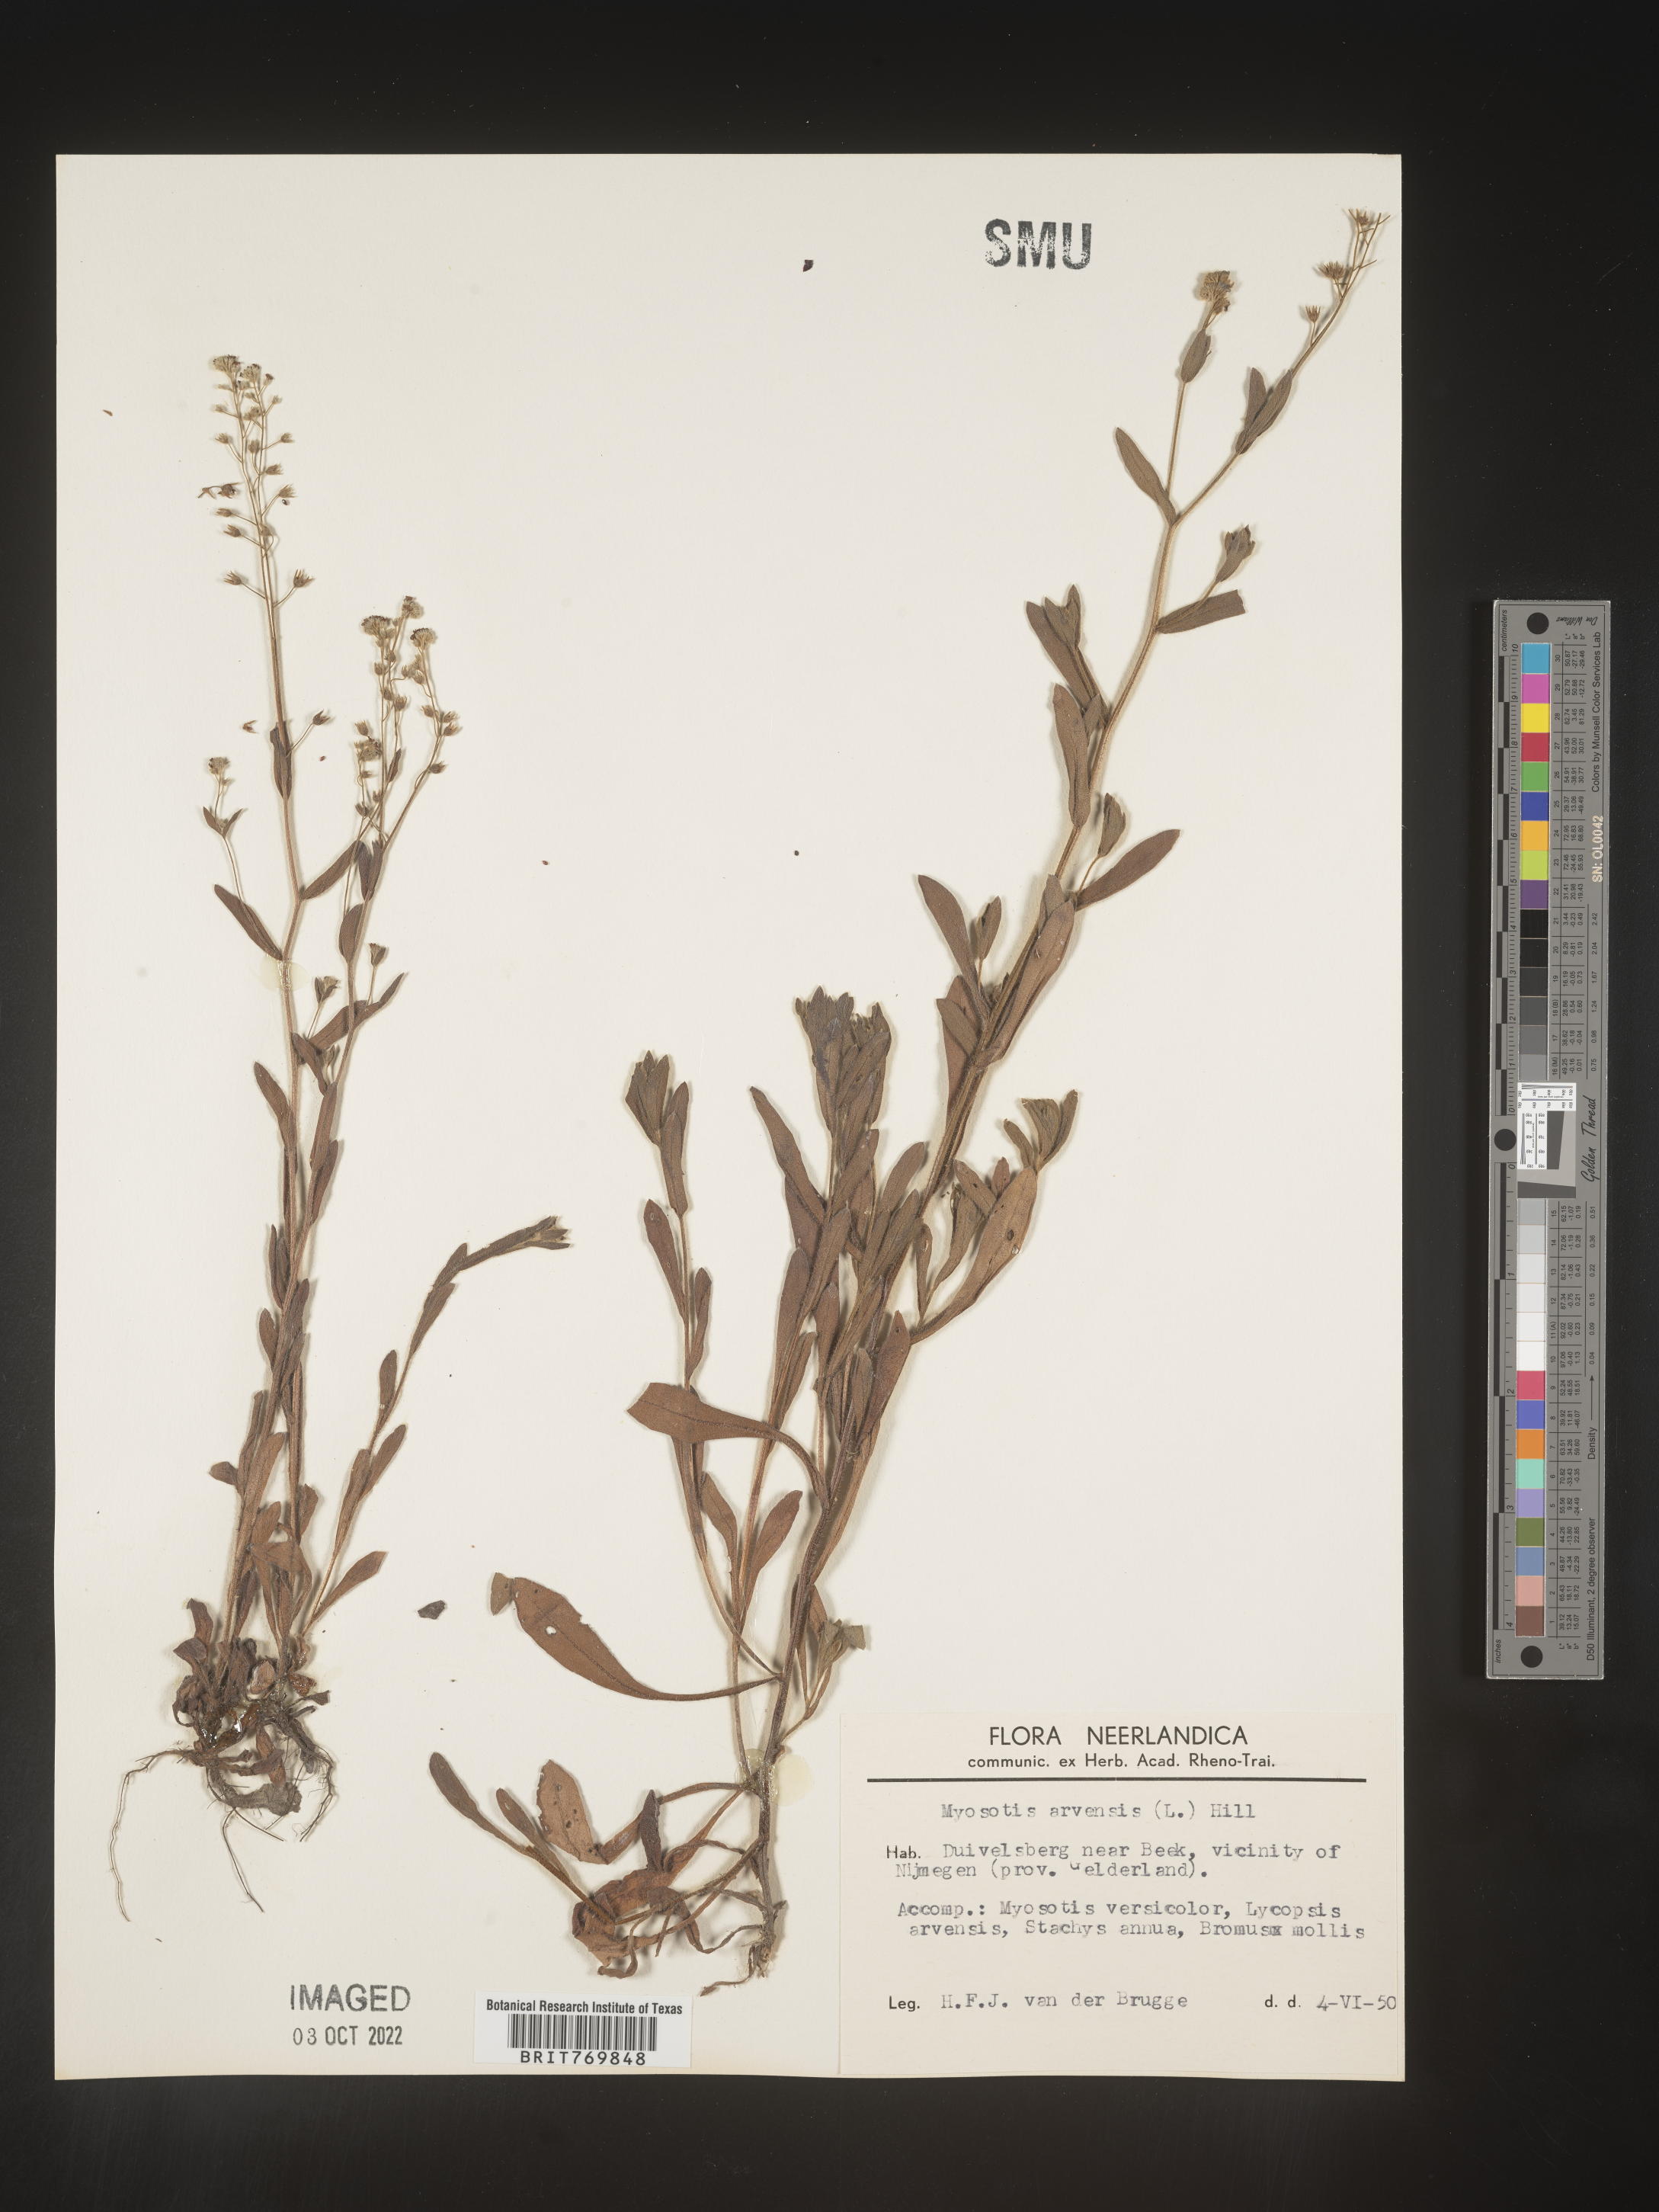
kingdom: Plantae
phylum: Tracheophyta
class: Magnoliopsida
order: Boraginales
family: Boraginaceae
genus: Myosotis
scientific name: Myosotis
